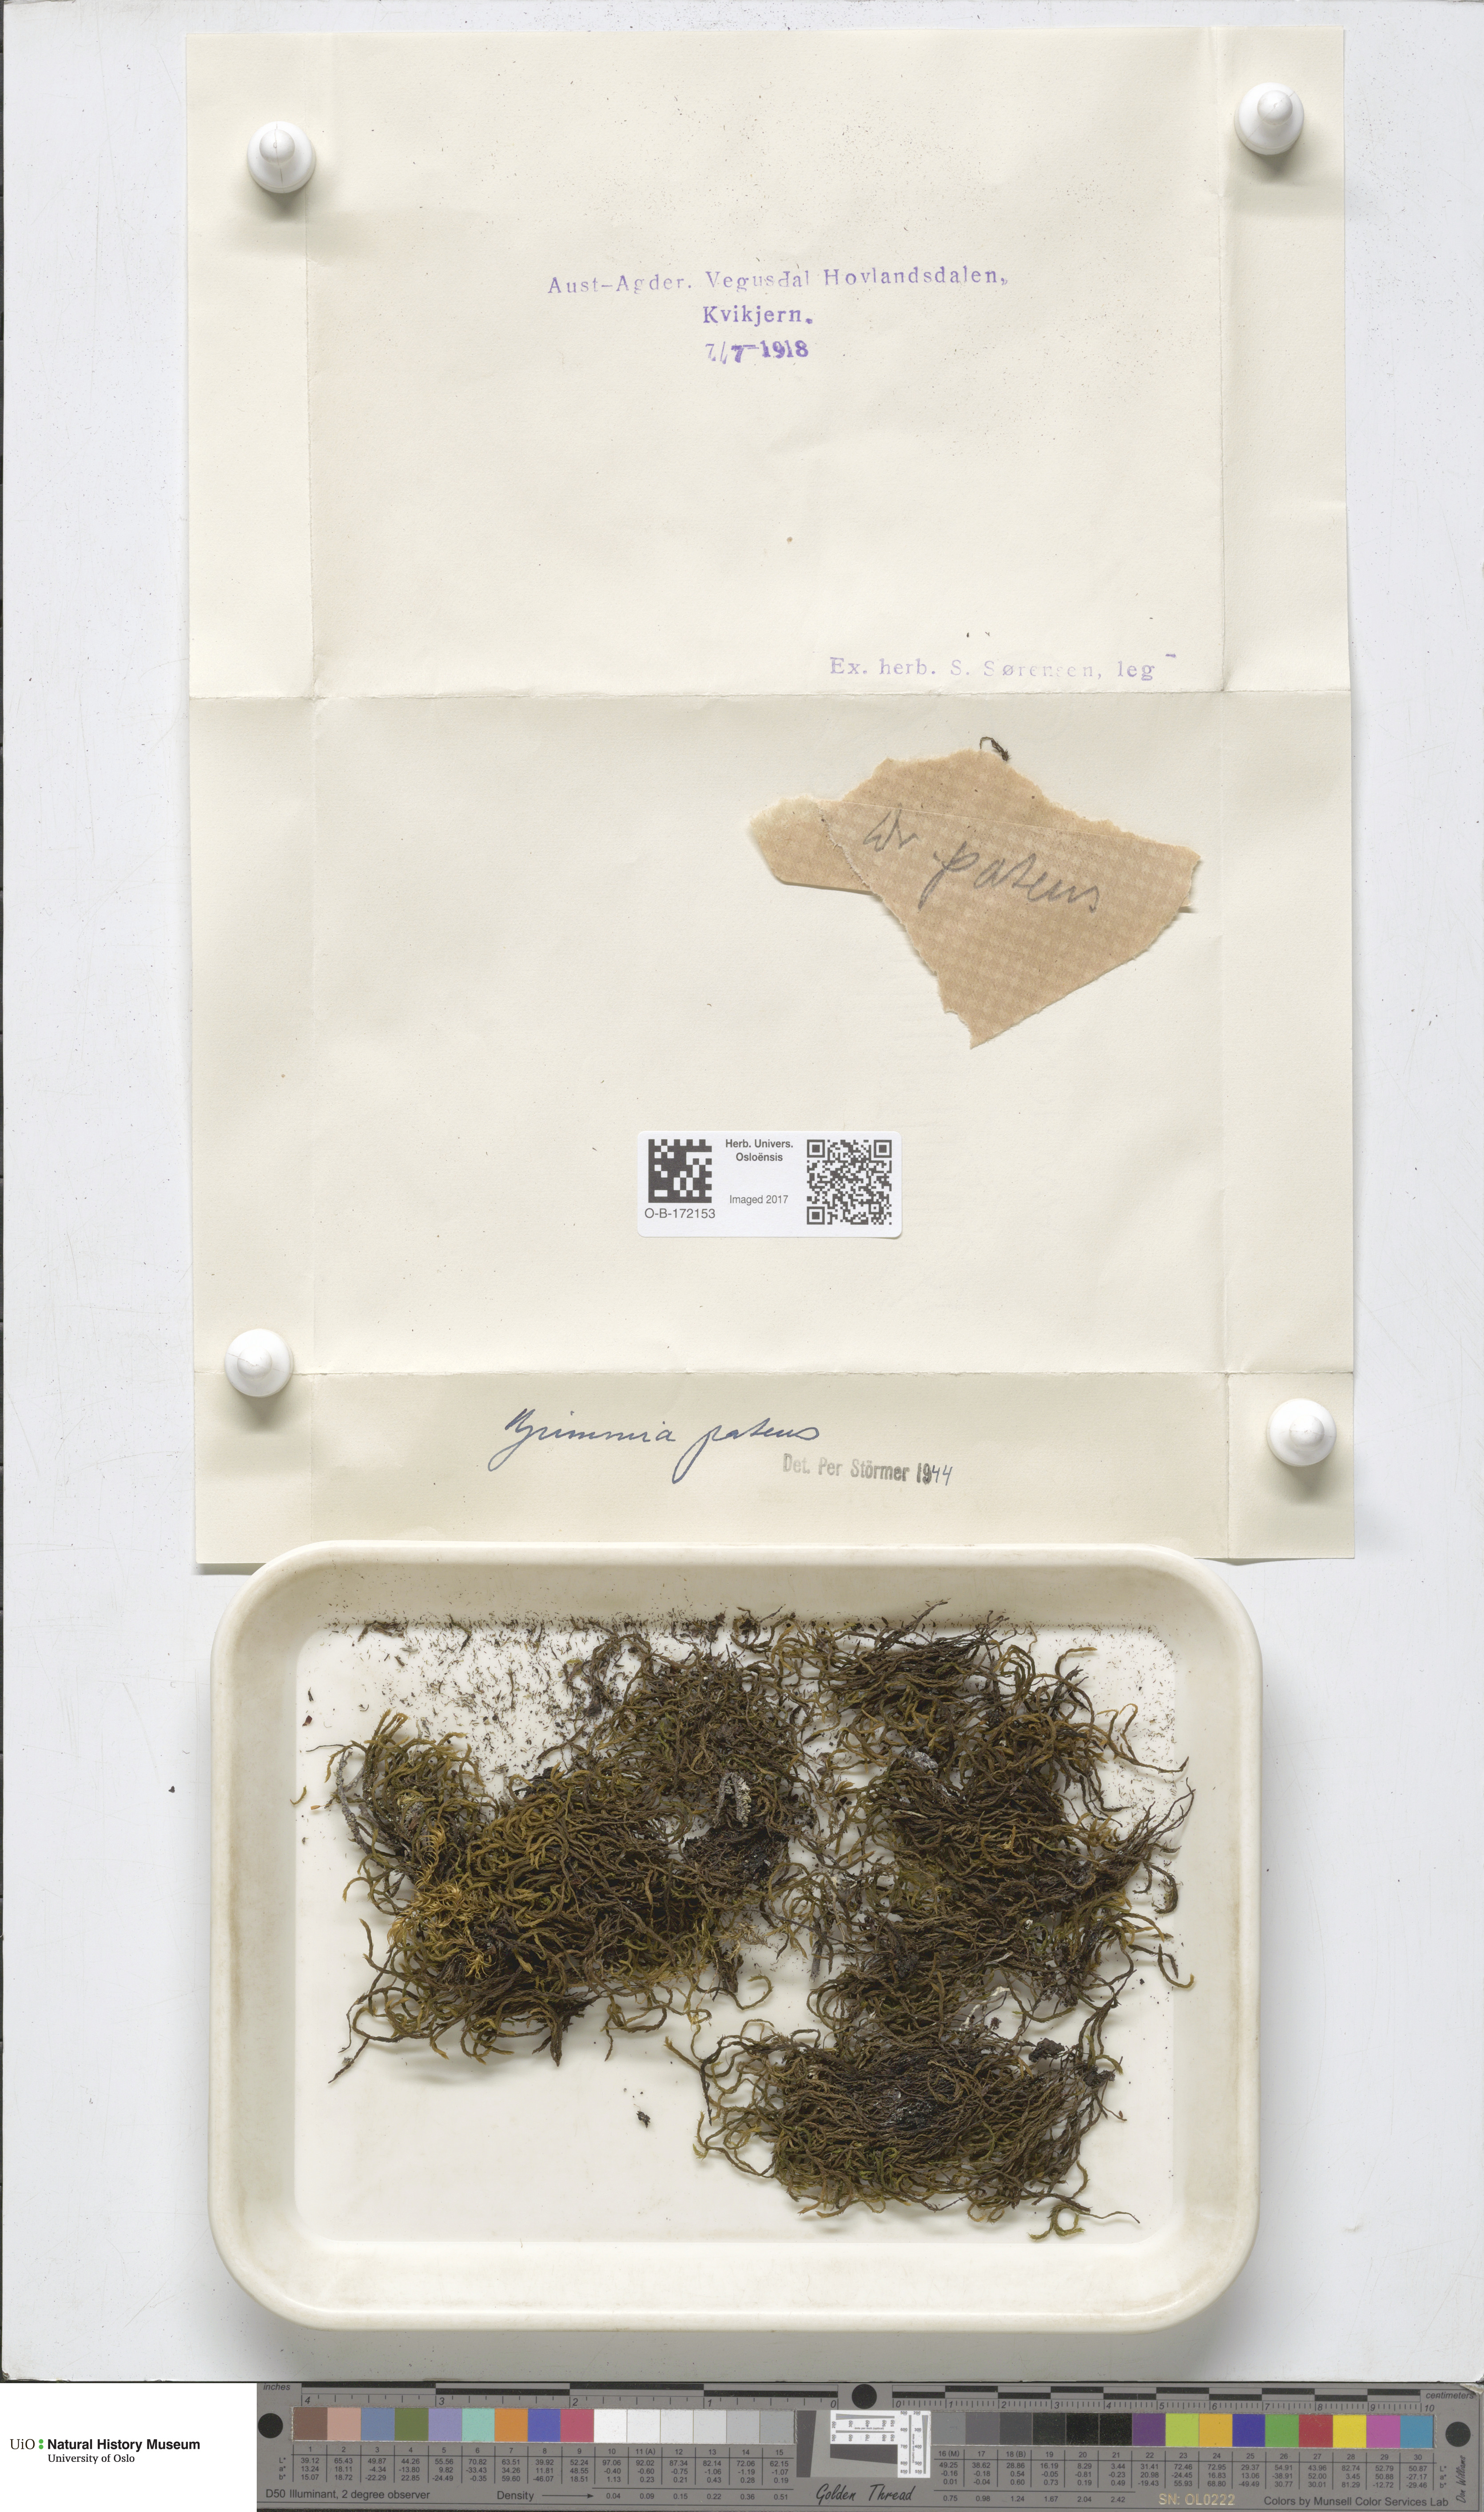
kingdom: Plantae
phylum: Bryophyta
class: Bryopsida
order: Grimmiales
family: Grimmiaceae
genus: Grimmia
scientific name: Grimmia ramondii
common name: Spreading-leaved grimmia
